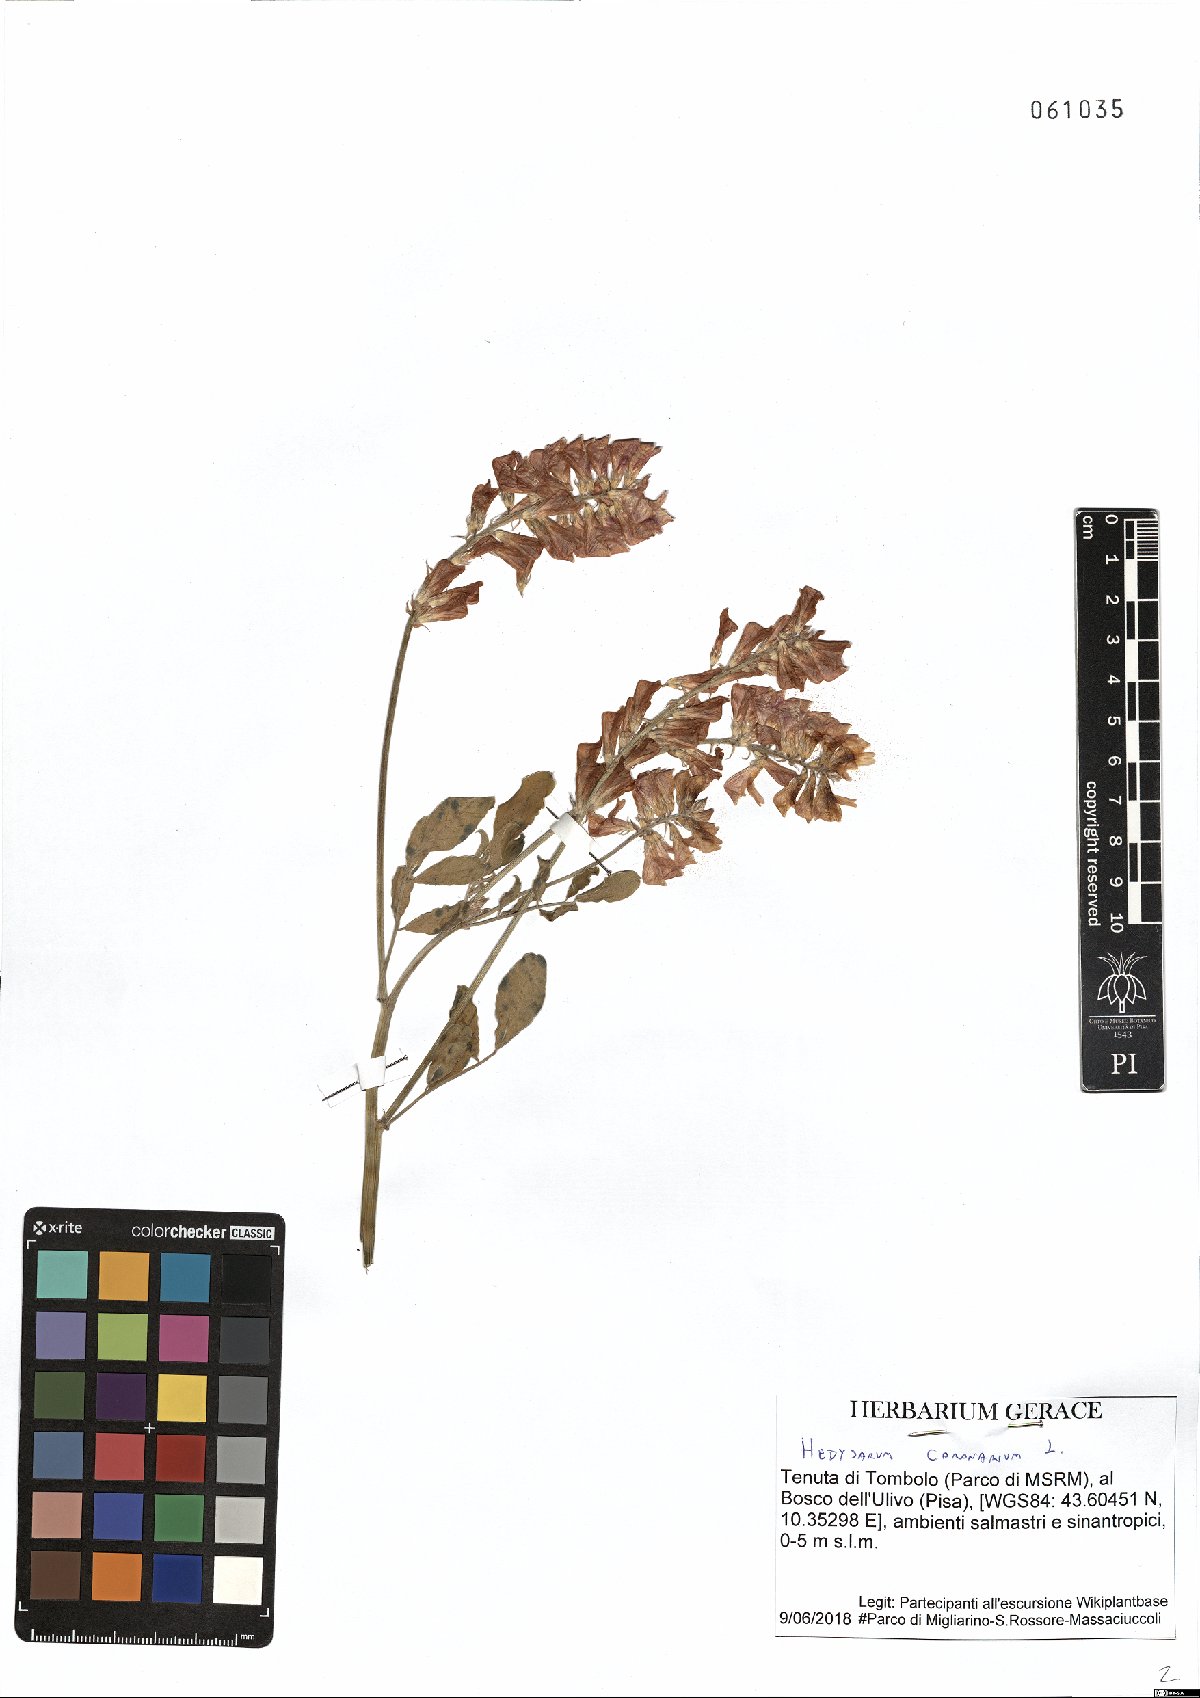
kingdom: Plantae
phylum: Tracheophyta
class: Magnoliopsida
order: Fabales
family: Fabaceae
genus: Sulla
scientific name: Sulla coronaria
